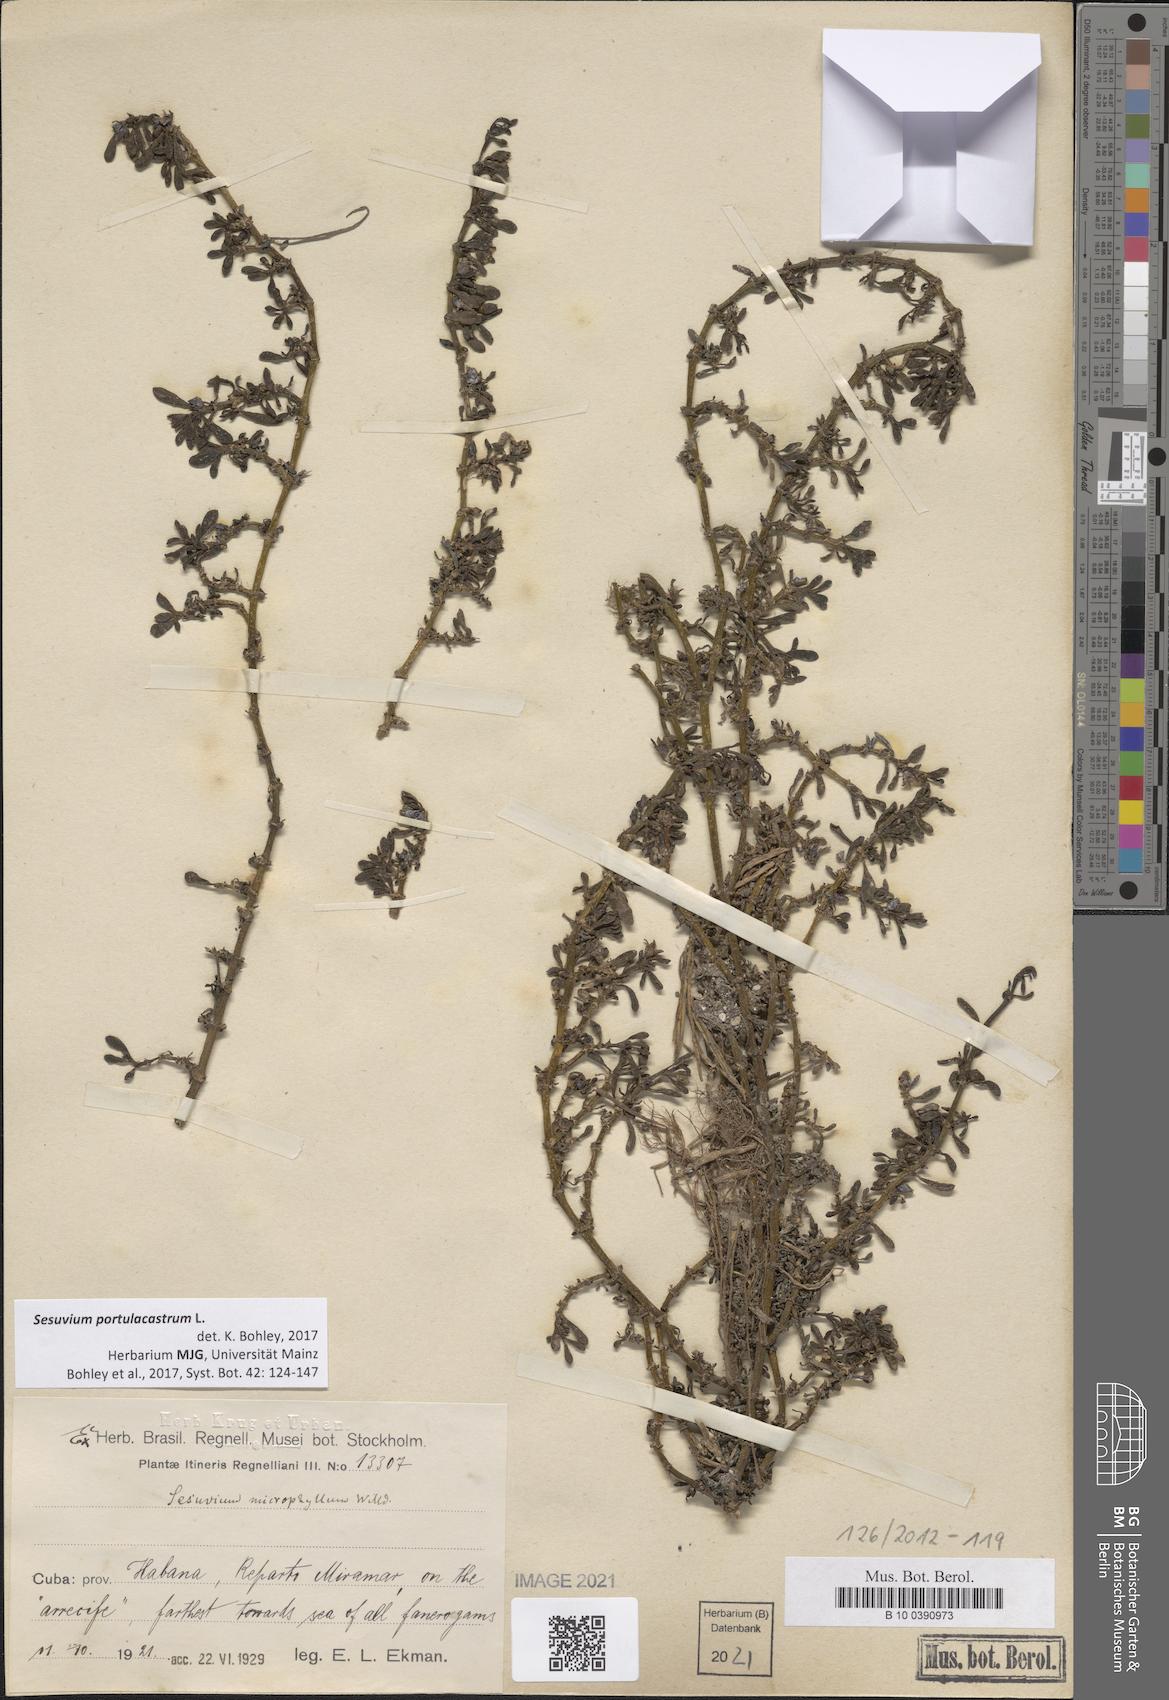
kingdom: Plantae
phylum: Tracheophyta
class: Magnoliopsida
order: Caryophyllales
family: Aizoaceae
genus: Sesuvium
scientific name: Sesuvium portulacastrum
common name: Sea-purslane
